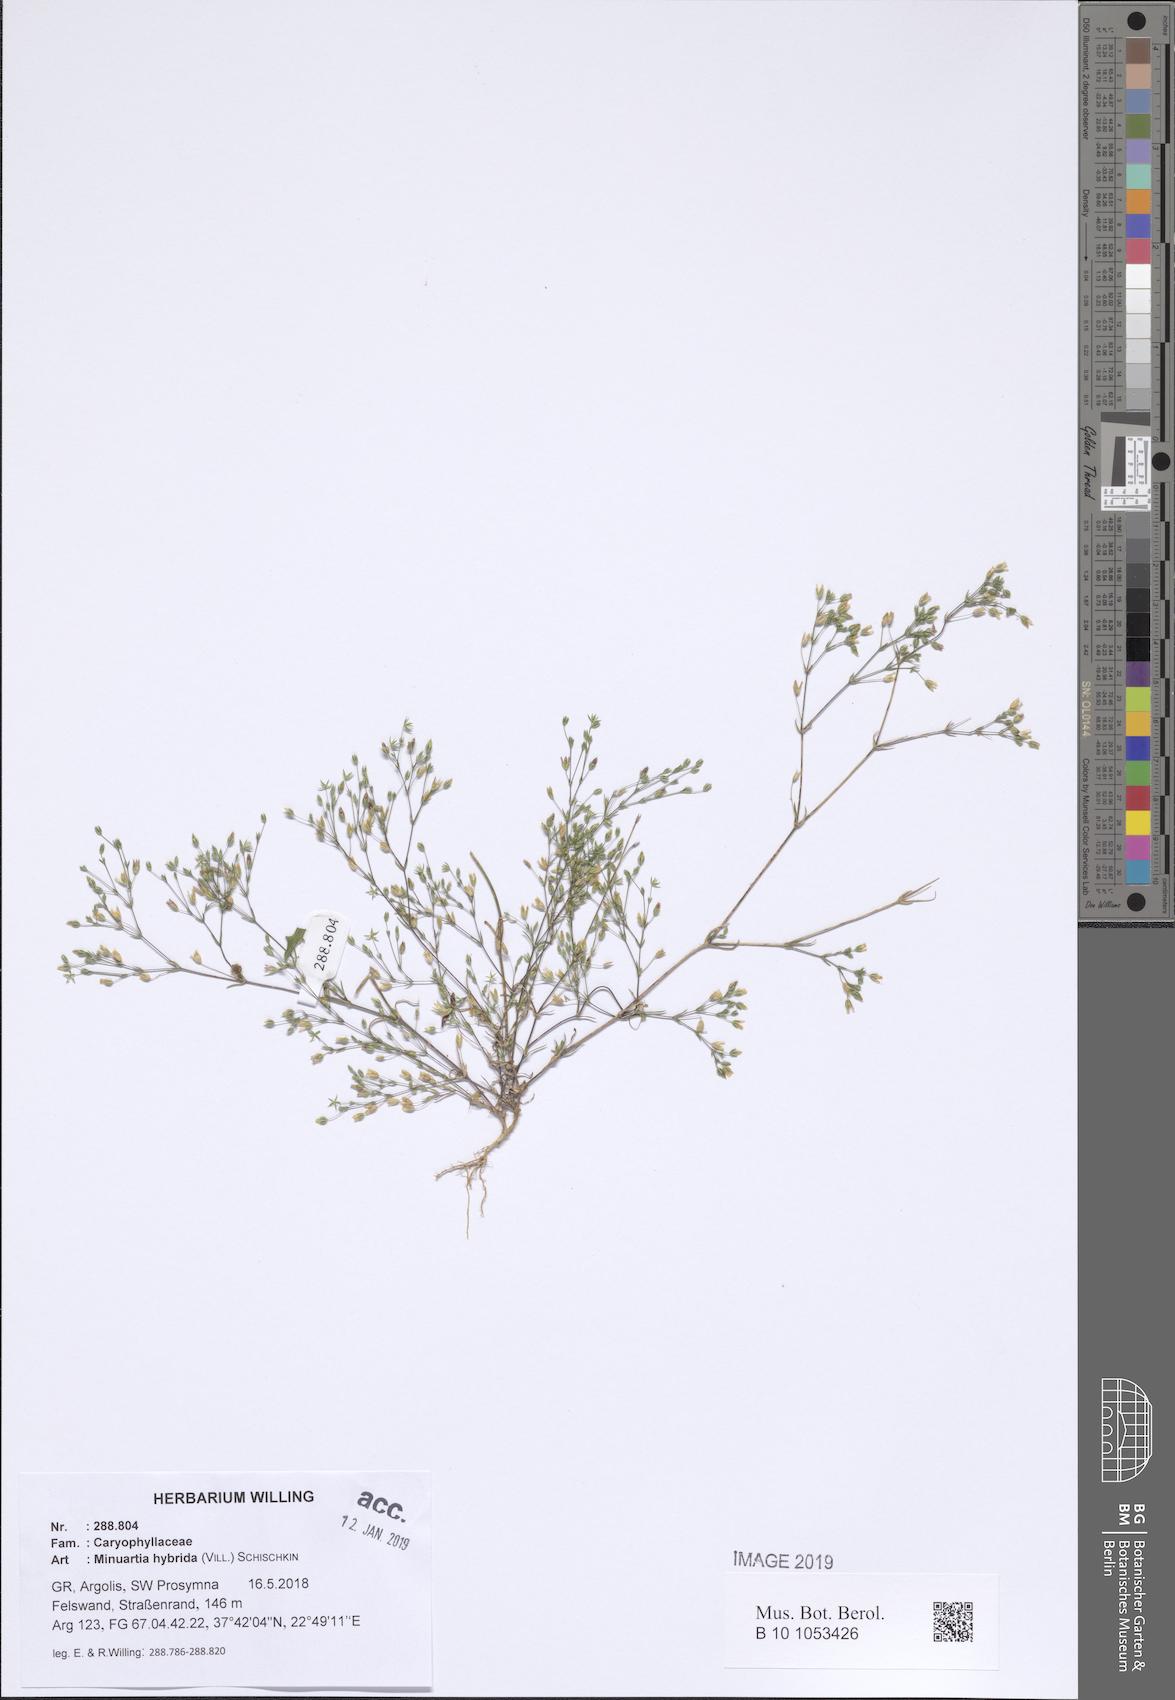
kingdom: Plantae
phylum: Tracheophyta
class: Magnoliopsida
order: Caryophyllales
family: Caryophyllaceae
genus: Sabulina
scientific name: Sabulina tenuifolia
